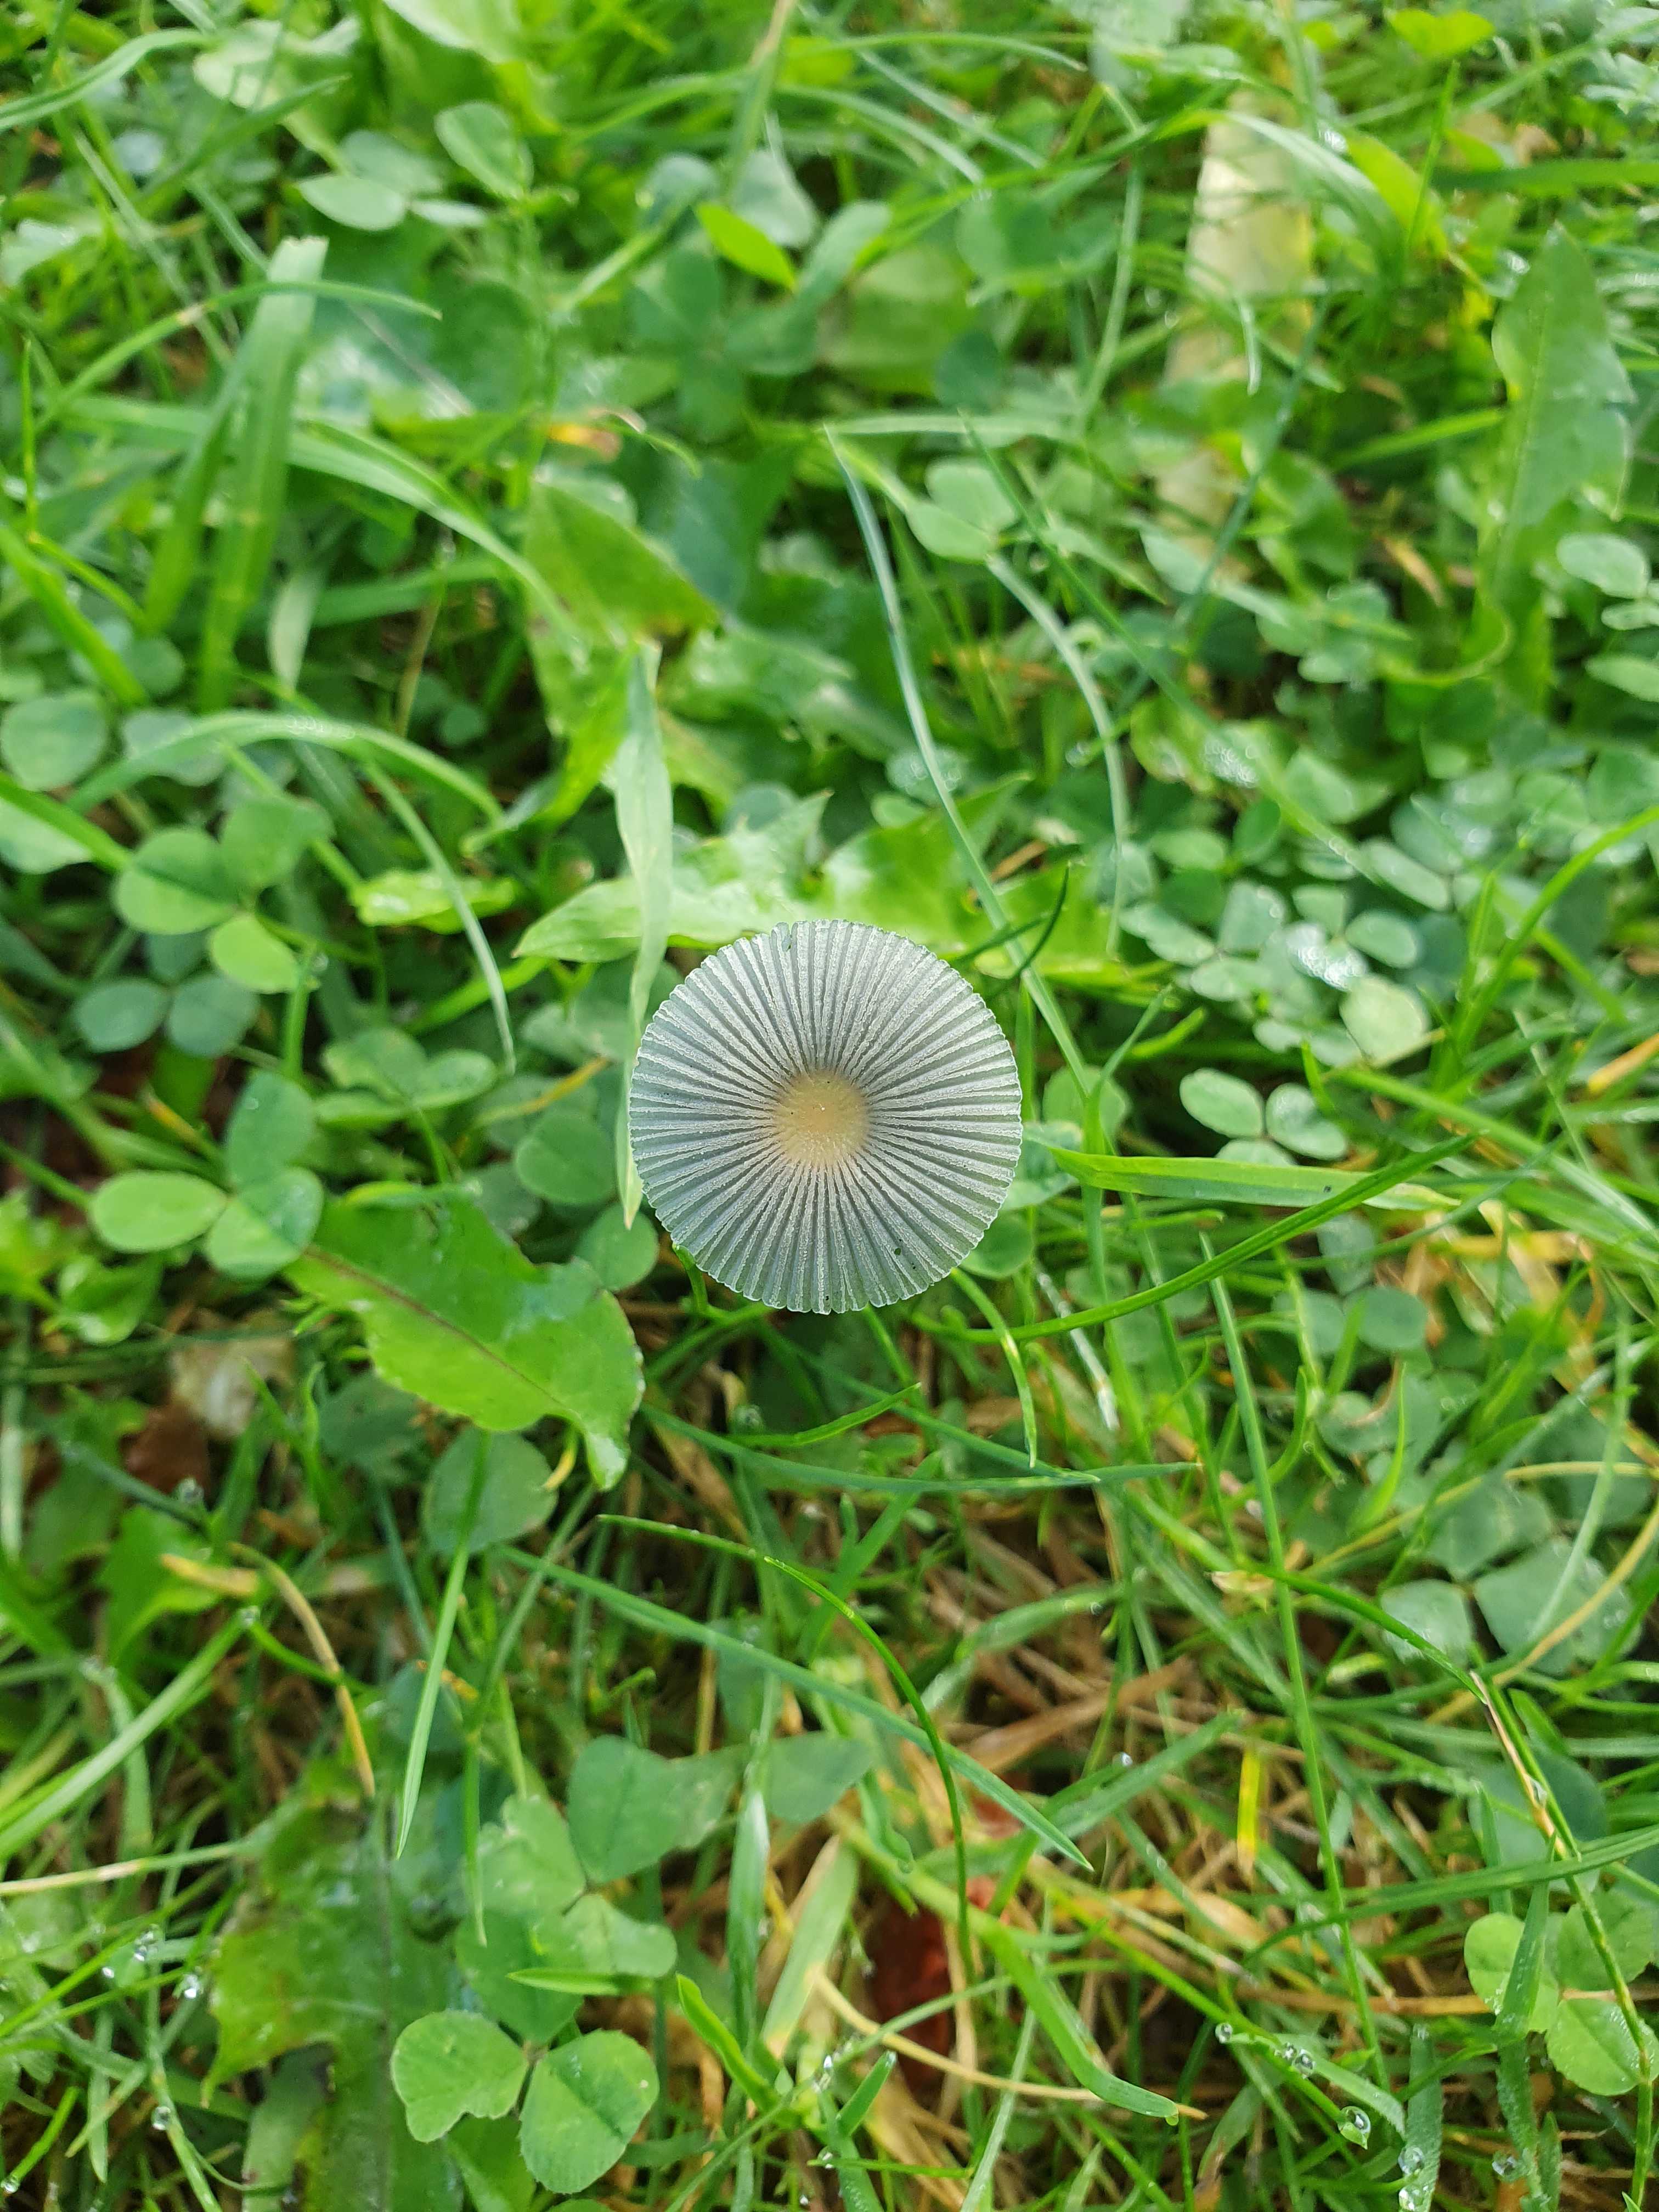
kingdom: Fungi
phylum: Basidiomycota
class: Agaricomycetes
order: Agaricales
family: Psathyrellaceae
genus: Parasola
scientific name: Parasola
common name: hjulhat
